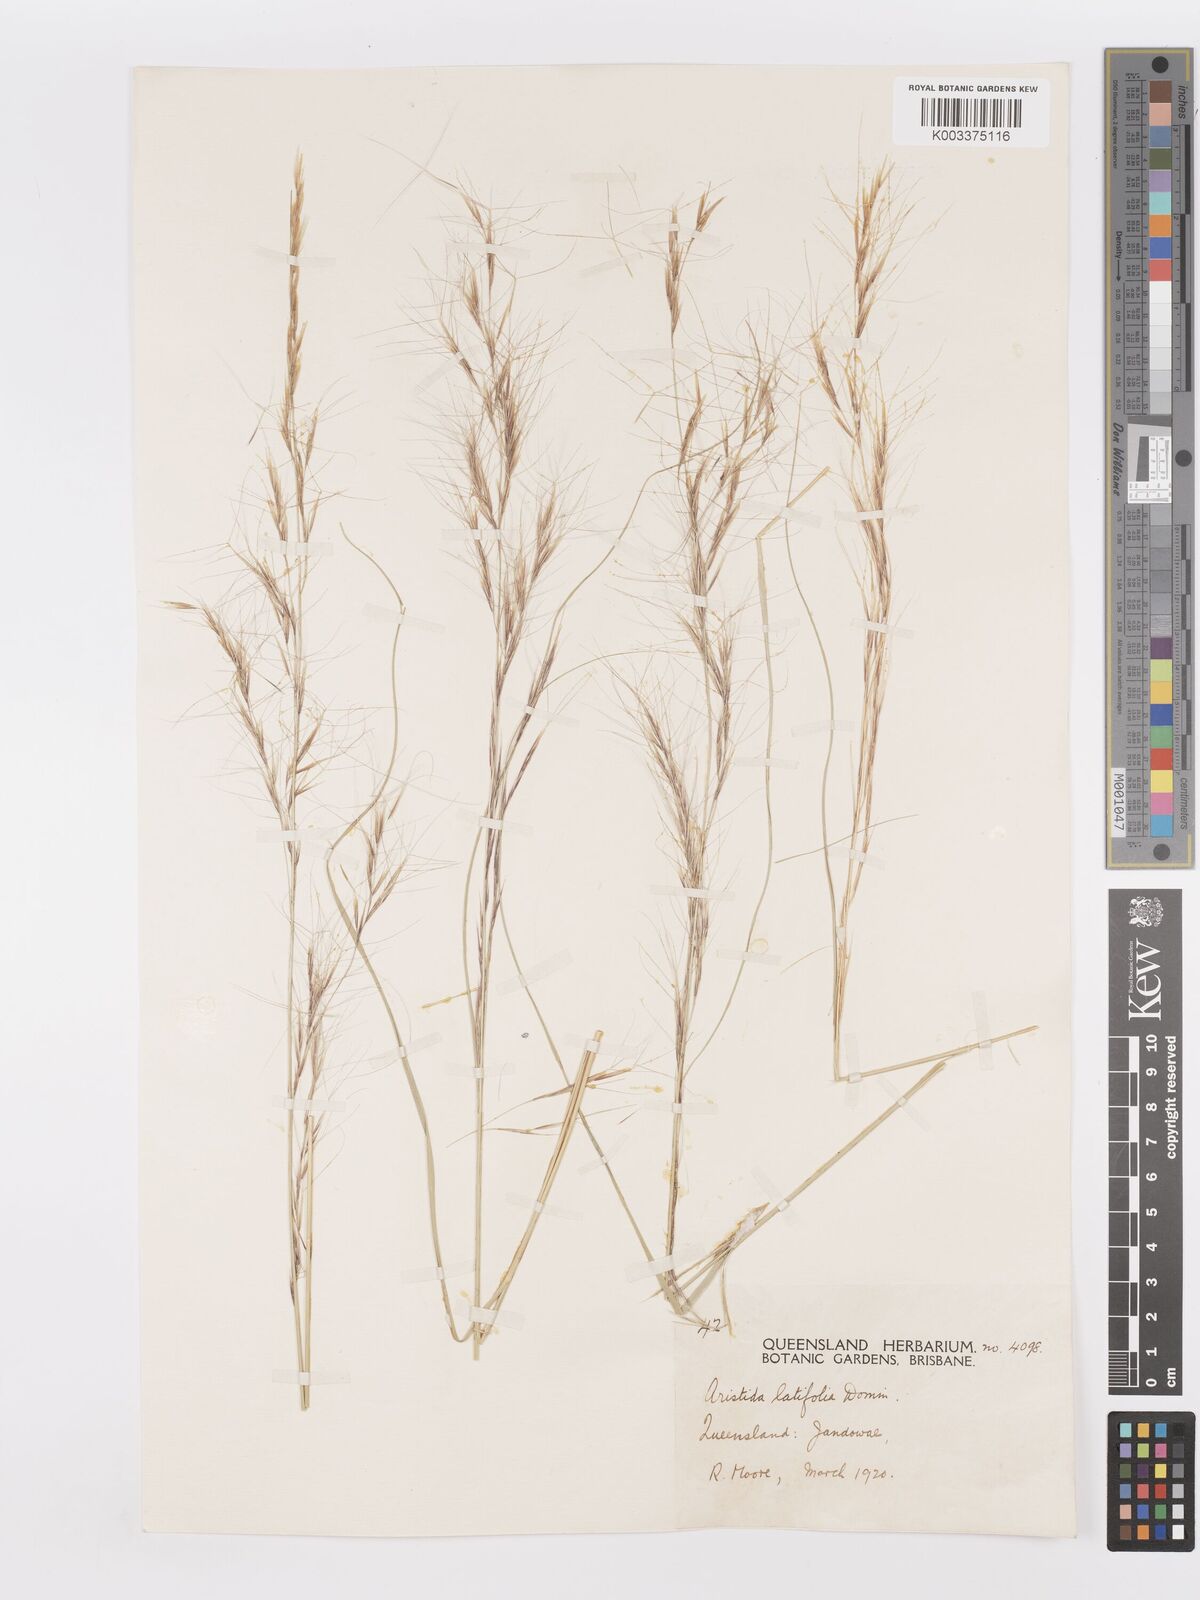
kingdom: Plantae
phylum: Tracheophyta
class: Liliopsida
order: Poales
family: Poaceae
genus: Aristida
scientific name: Aristida latifolia
